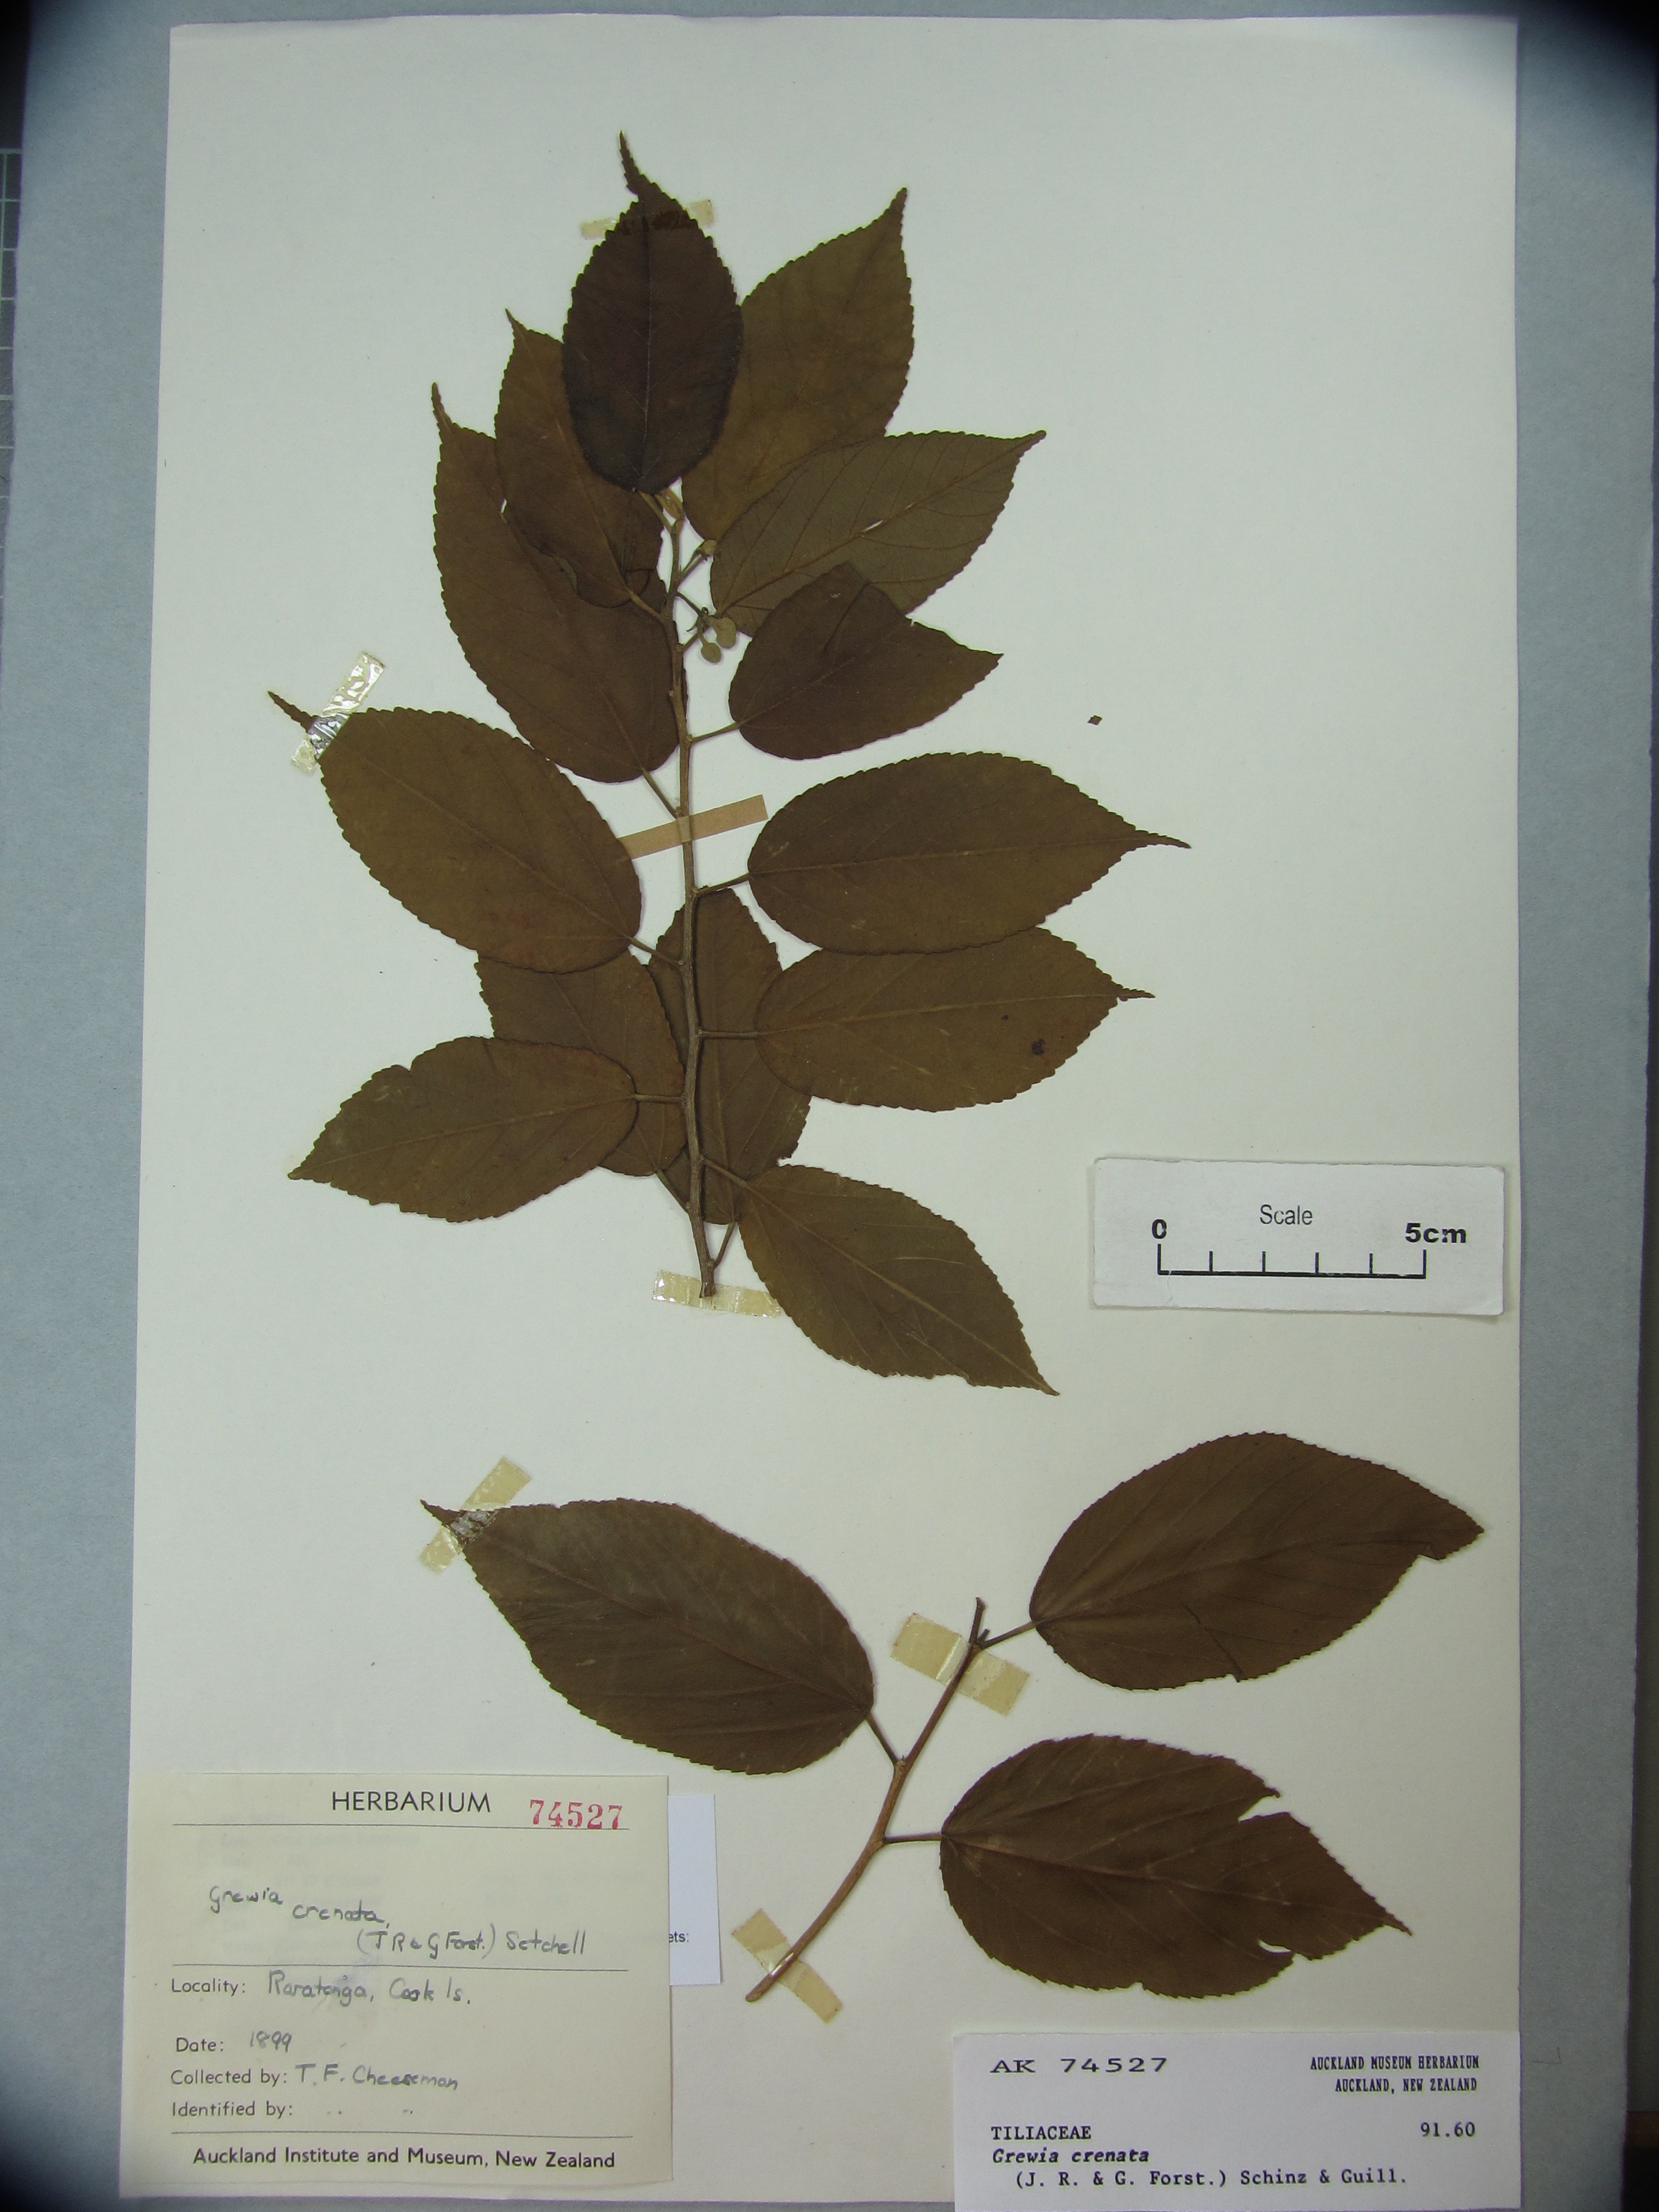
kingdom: Plantae
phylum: Tracheophyta
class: Magnoliopsida
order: Malvales
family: Malvaceae
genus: Grewia
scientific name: Grewia crenata
